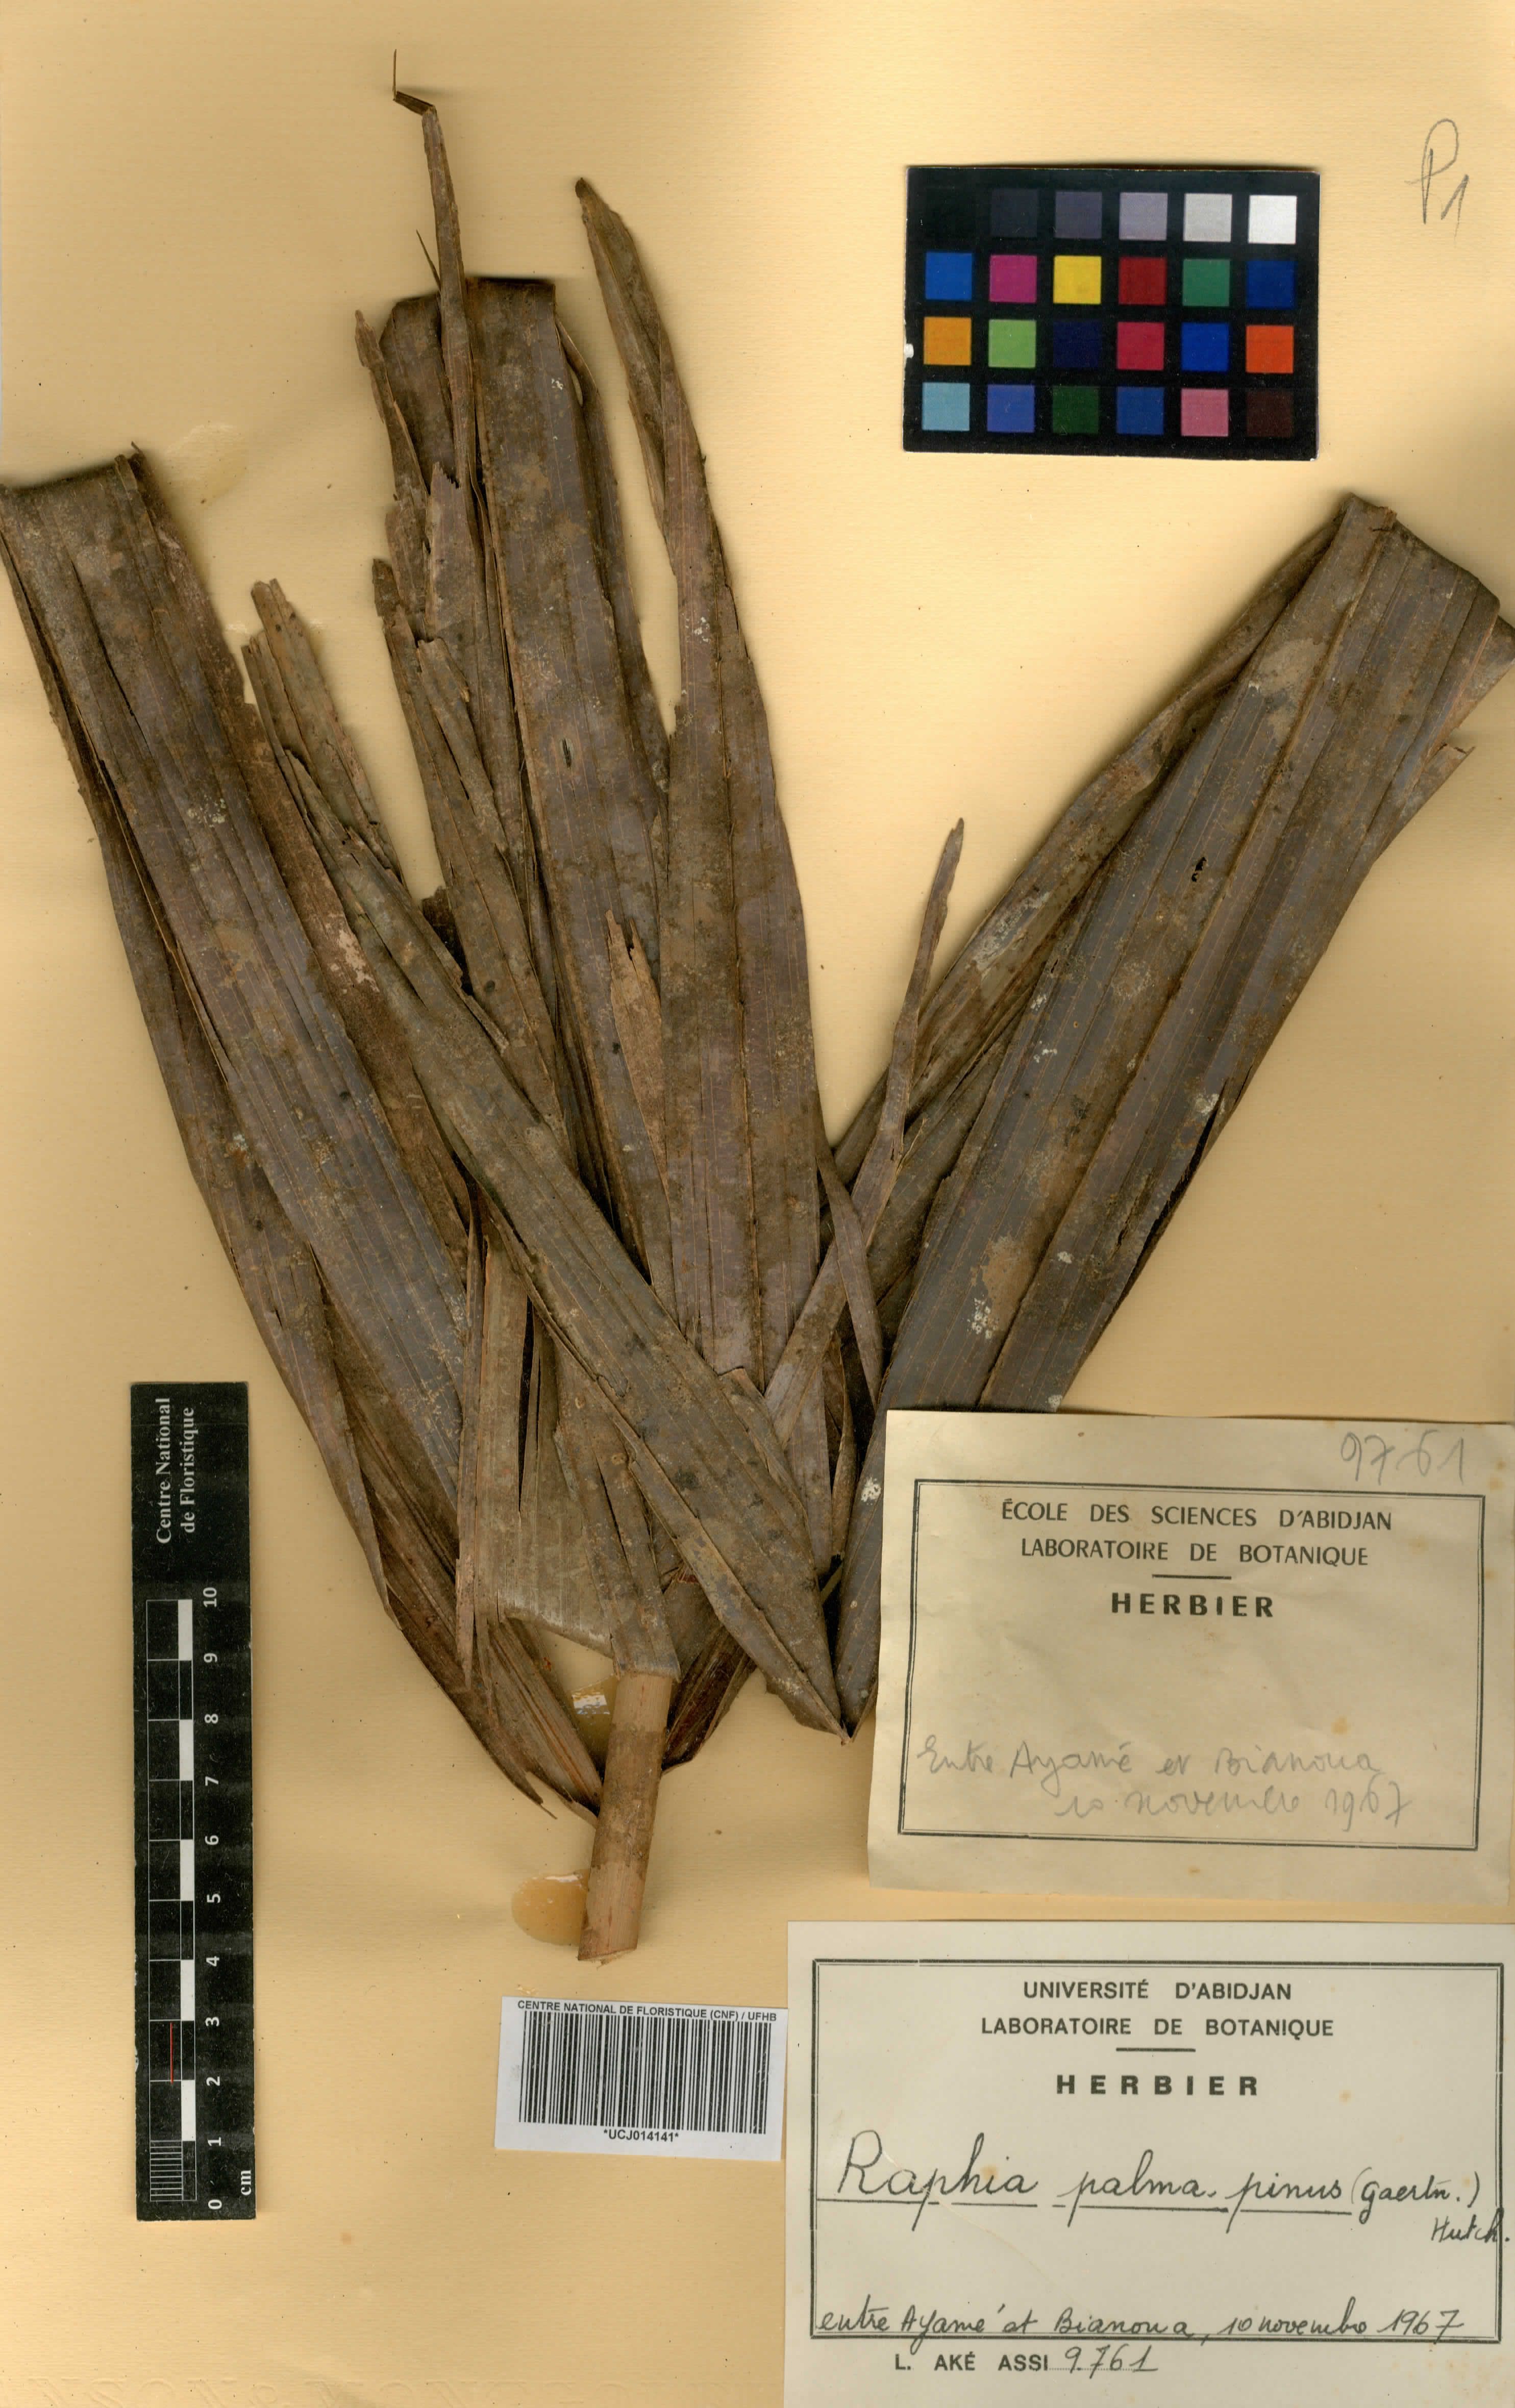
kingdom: Plantae
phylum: Tracheophyta
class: Liliopsida
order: Arecales
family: Arecaceae
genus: Raphia
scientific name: Raphia palma-pinus
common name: Raphia palm
